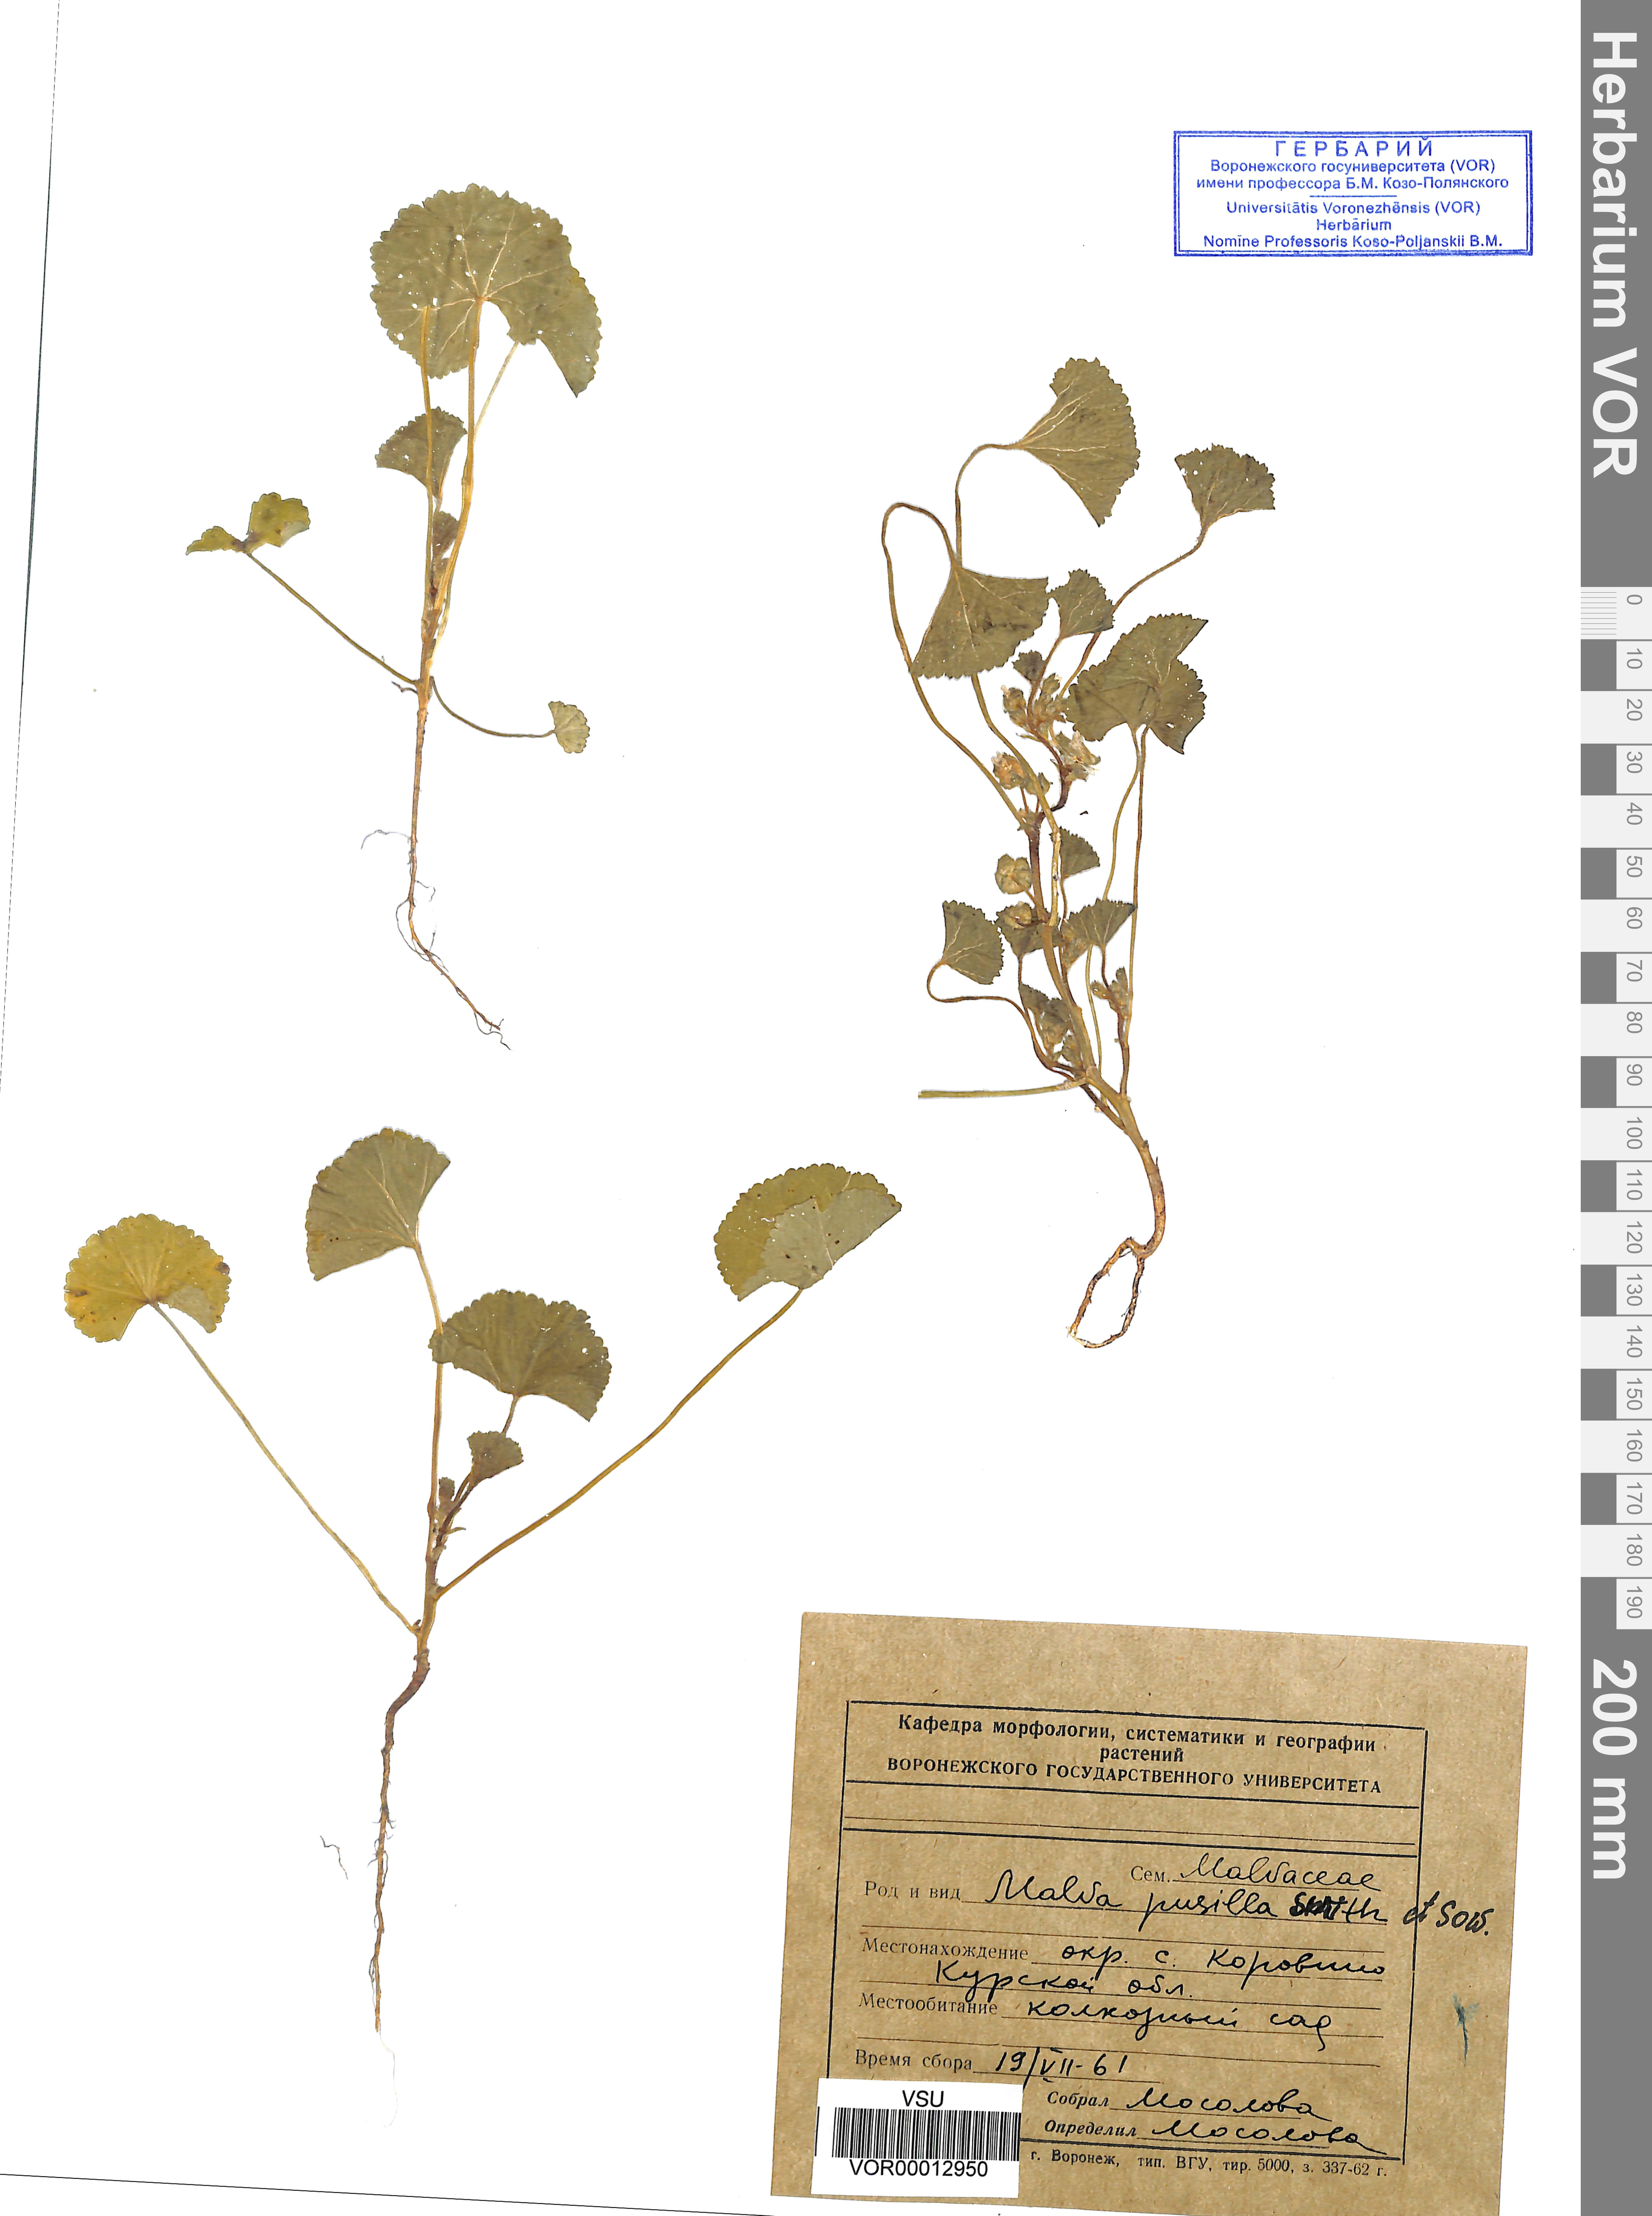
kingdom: Plantae
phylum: Tracheophyta
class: Magnoliopsida
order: Malvales
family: Malvaceae
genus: Malva
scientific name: Malva pusilla
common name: Small mallow
